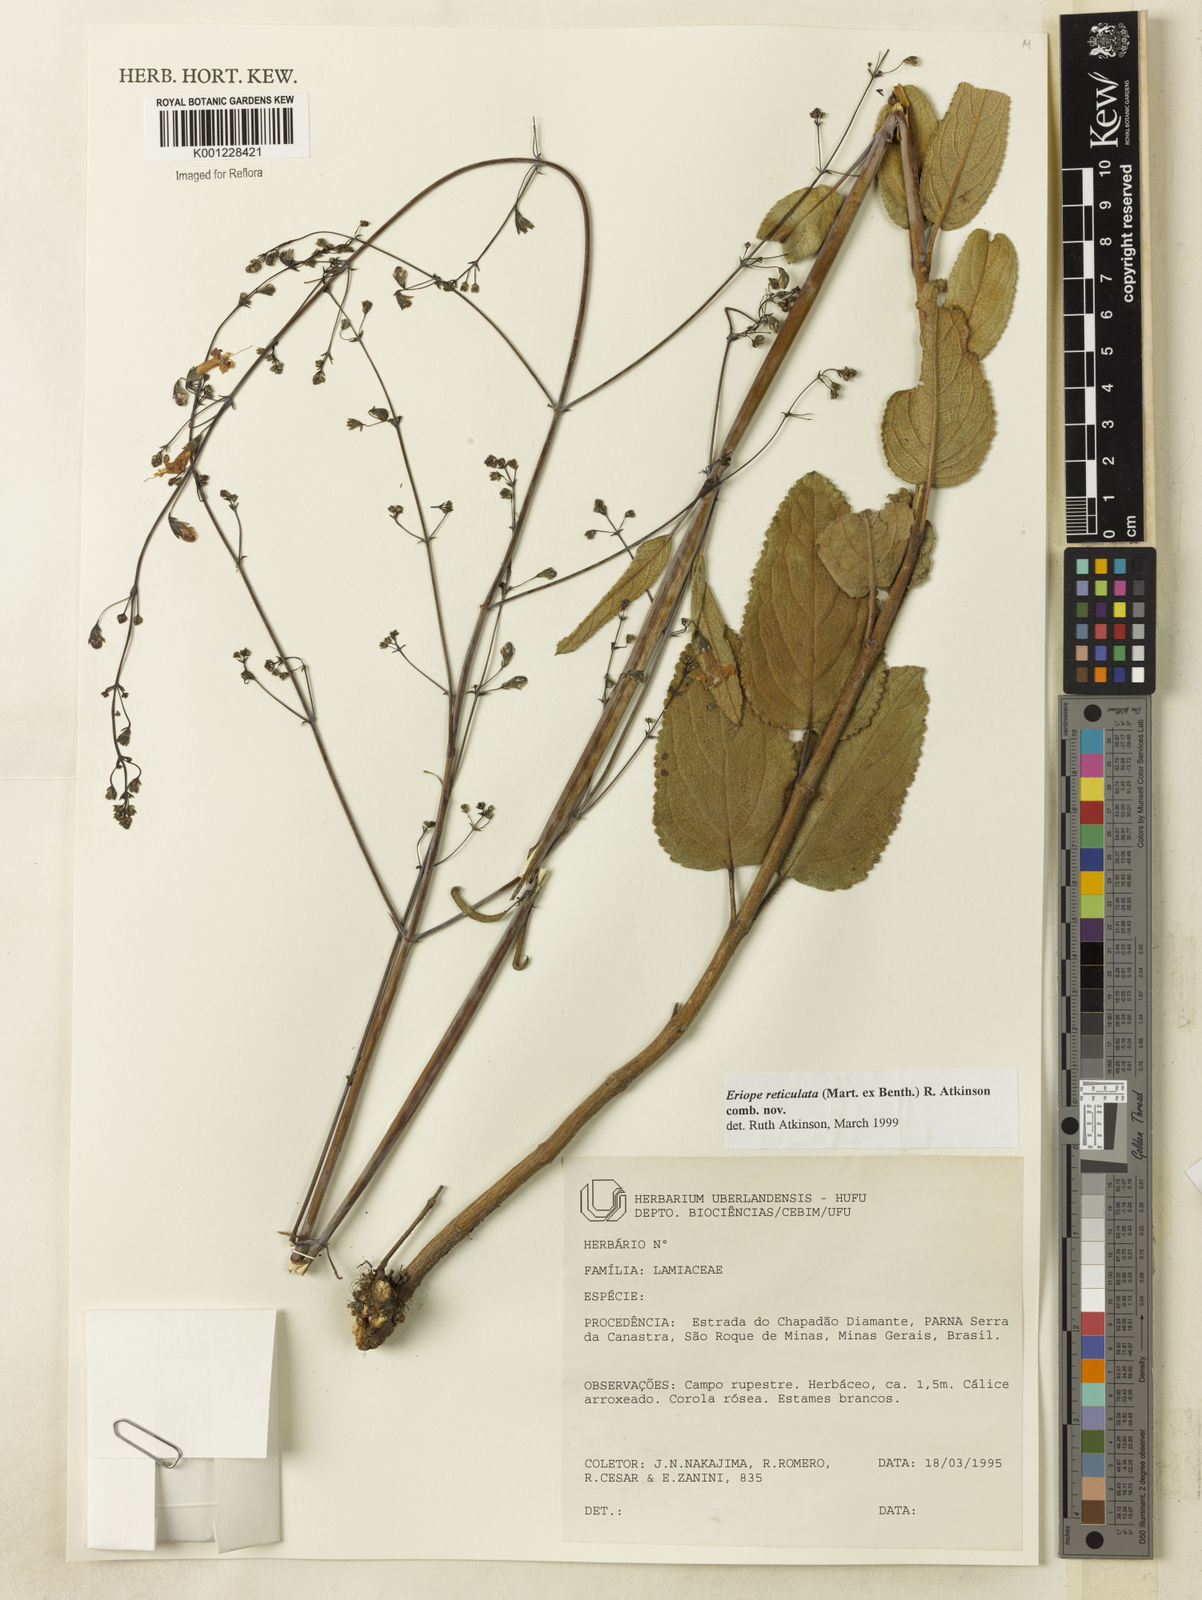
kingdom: Plantae
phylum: Tracheophyta
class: Magnoliopsida
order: Lamiales
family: Lamiaceae
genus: Hypenia
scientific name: Hypenia reticulata
